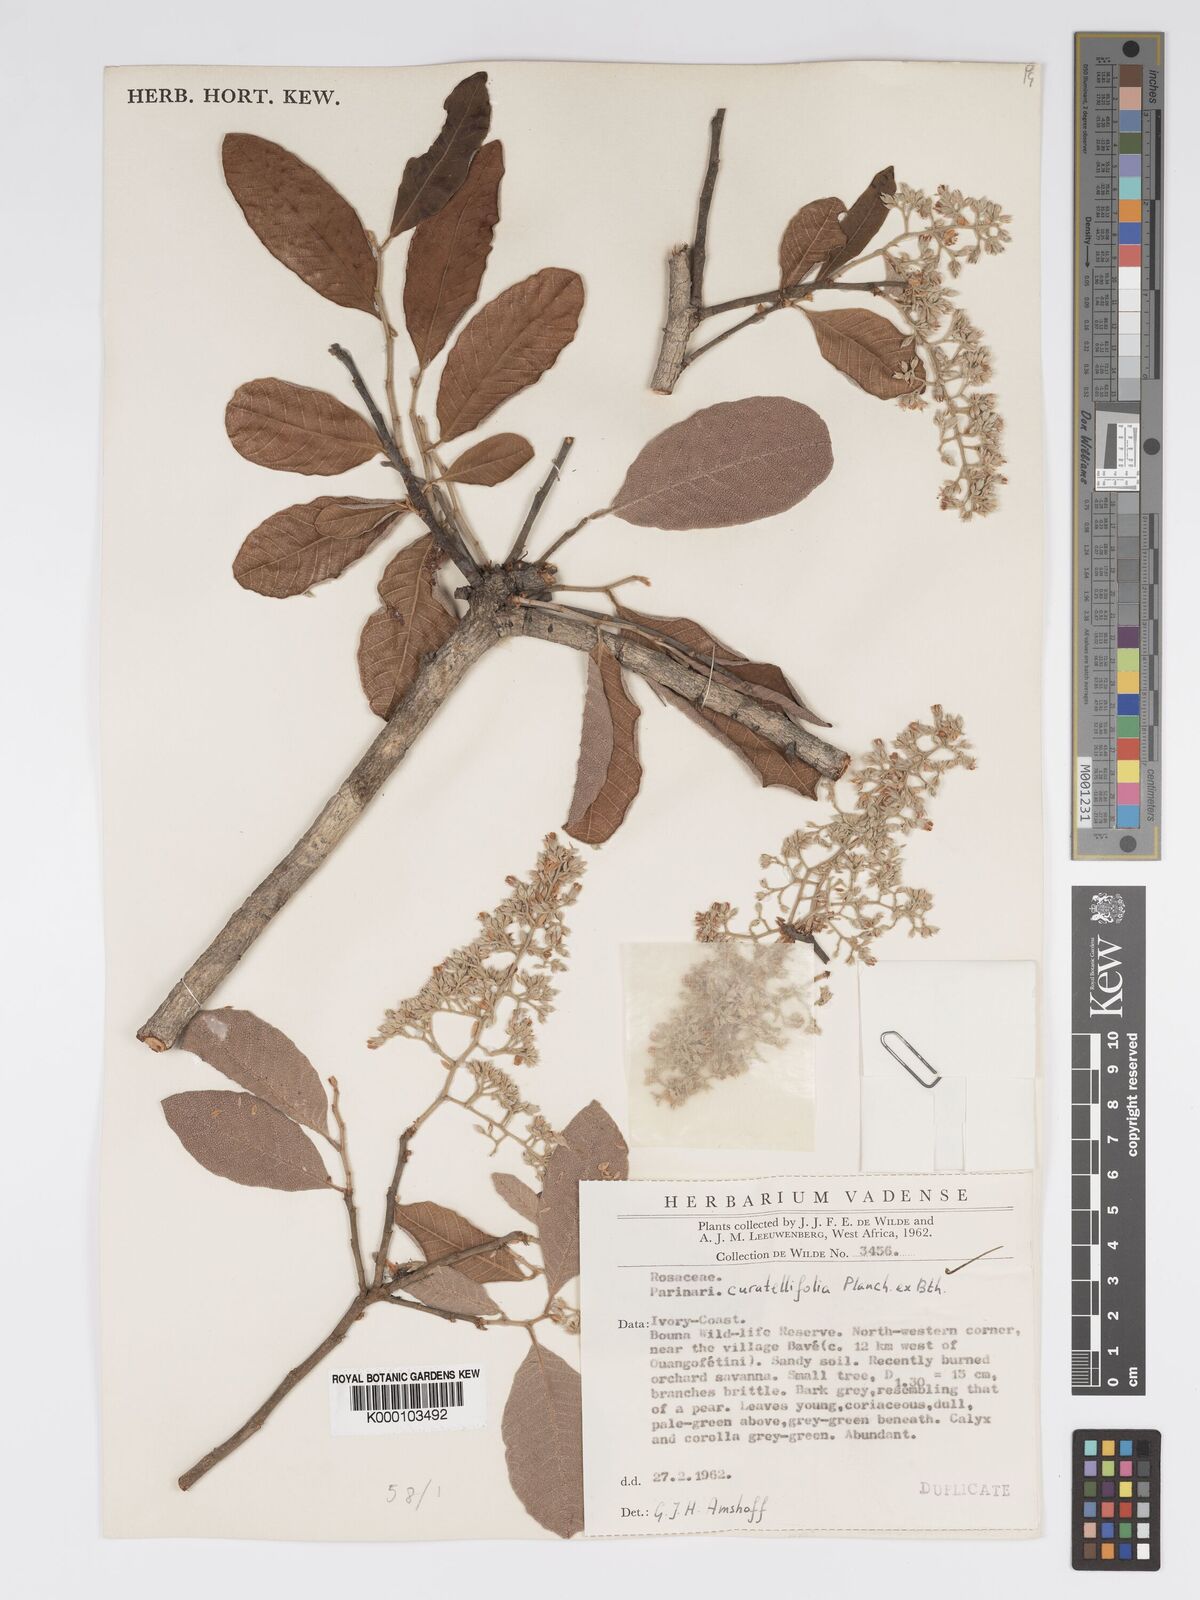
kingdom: Plantae
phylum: Tracheophyta
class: Magnoliopsida
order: Malpighiales
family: Chrysobalanaceae
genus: Parinari
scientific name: Parinari curatellifolia
